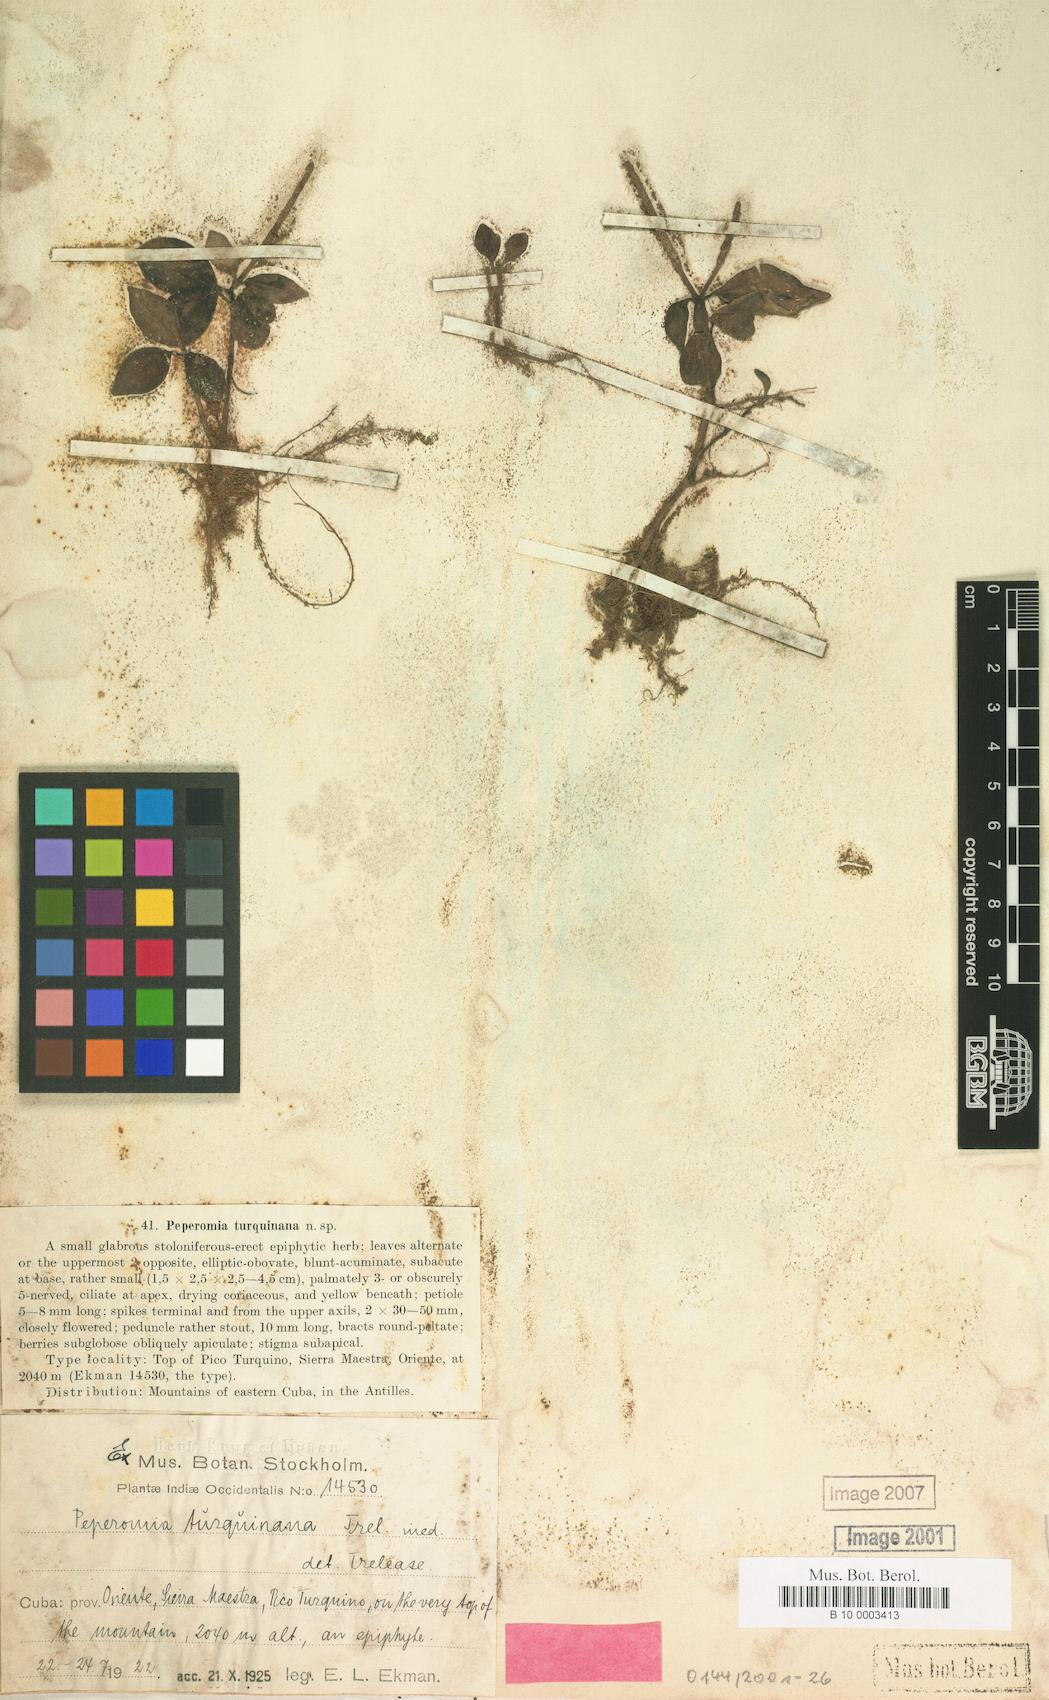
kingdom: Plantae
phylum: Tracheophyta
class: Magnoliopsida
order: Piperales
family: Piperaceae
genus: Peperomia
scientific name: Peperomia maxonii
